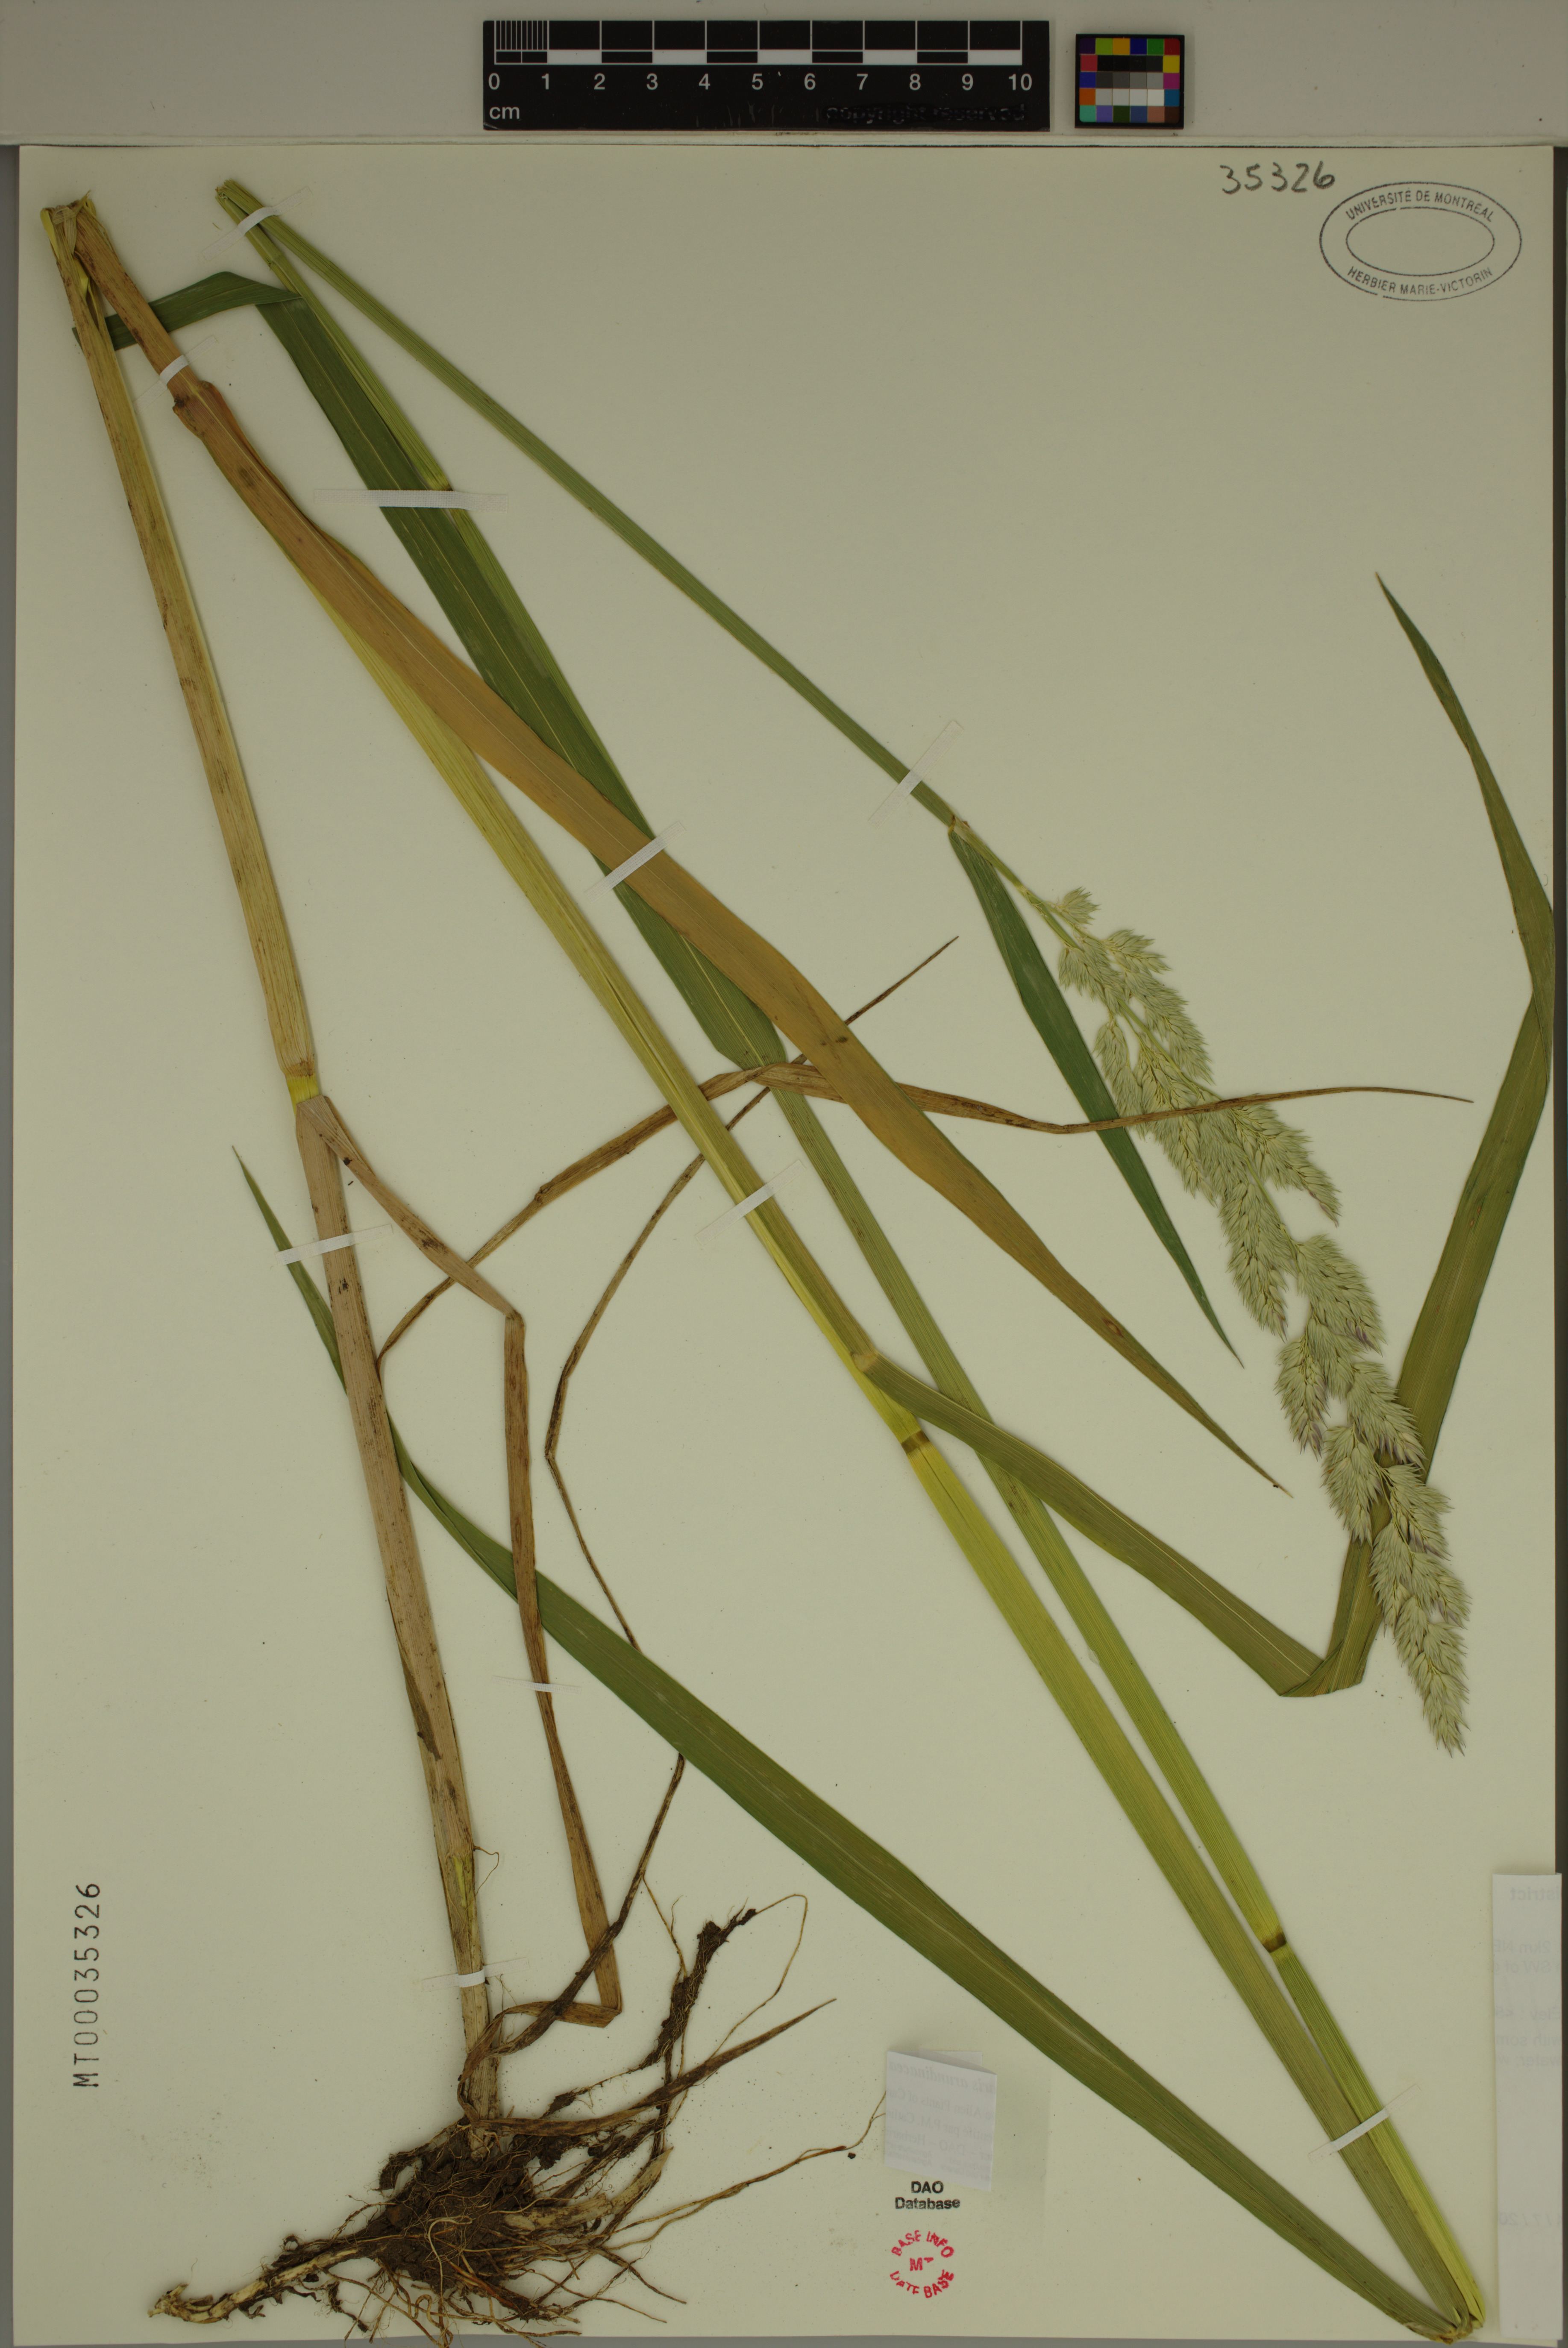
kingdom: Plantae
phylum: Tracheophyta
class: Liliopsida
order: Poales
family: Poaceae
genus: Phalaris
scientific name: Phalaris arundinacea
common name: Reed canary-grass
